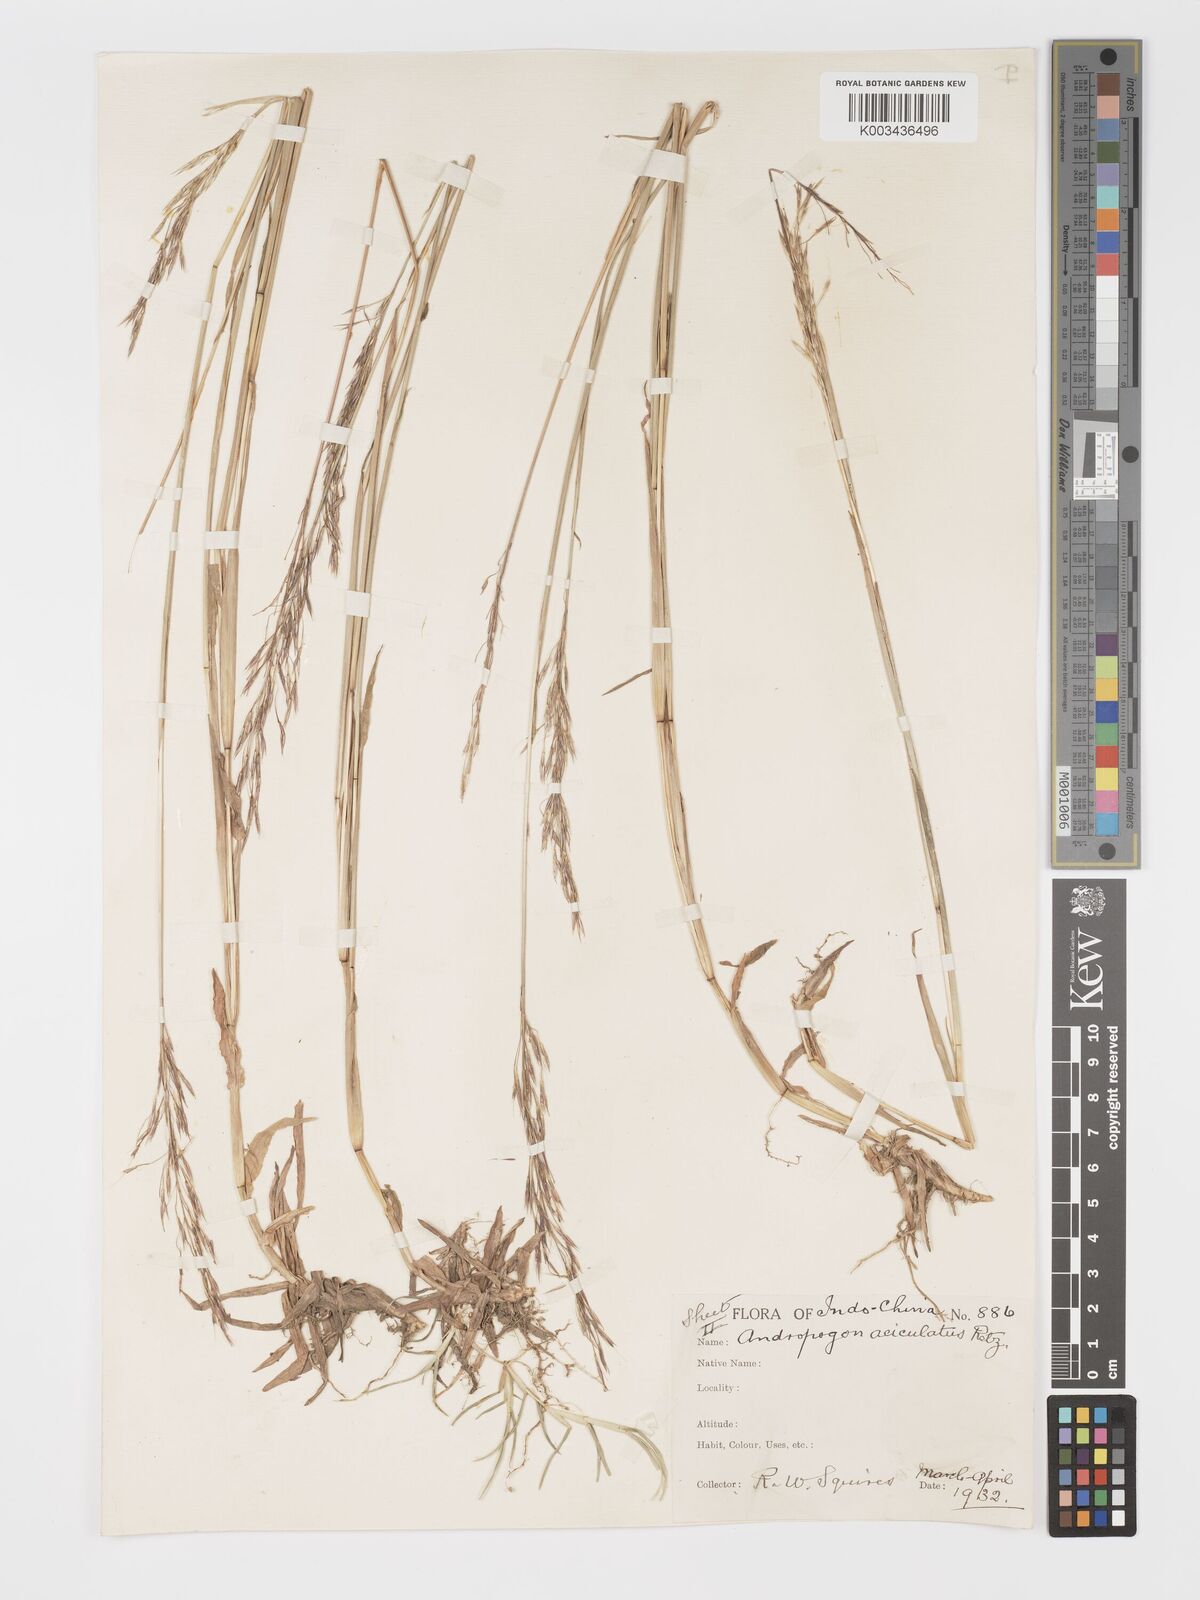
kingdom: Plantae
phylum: Tracheophyta
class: Liliopsida
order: Poales
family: Poaceae
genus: Chrysopogon
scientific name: Chrysopogon aciculatus
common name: Pilipiliula
